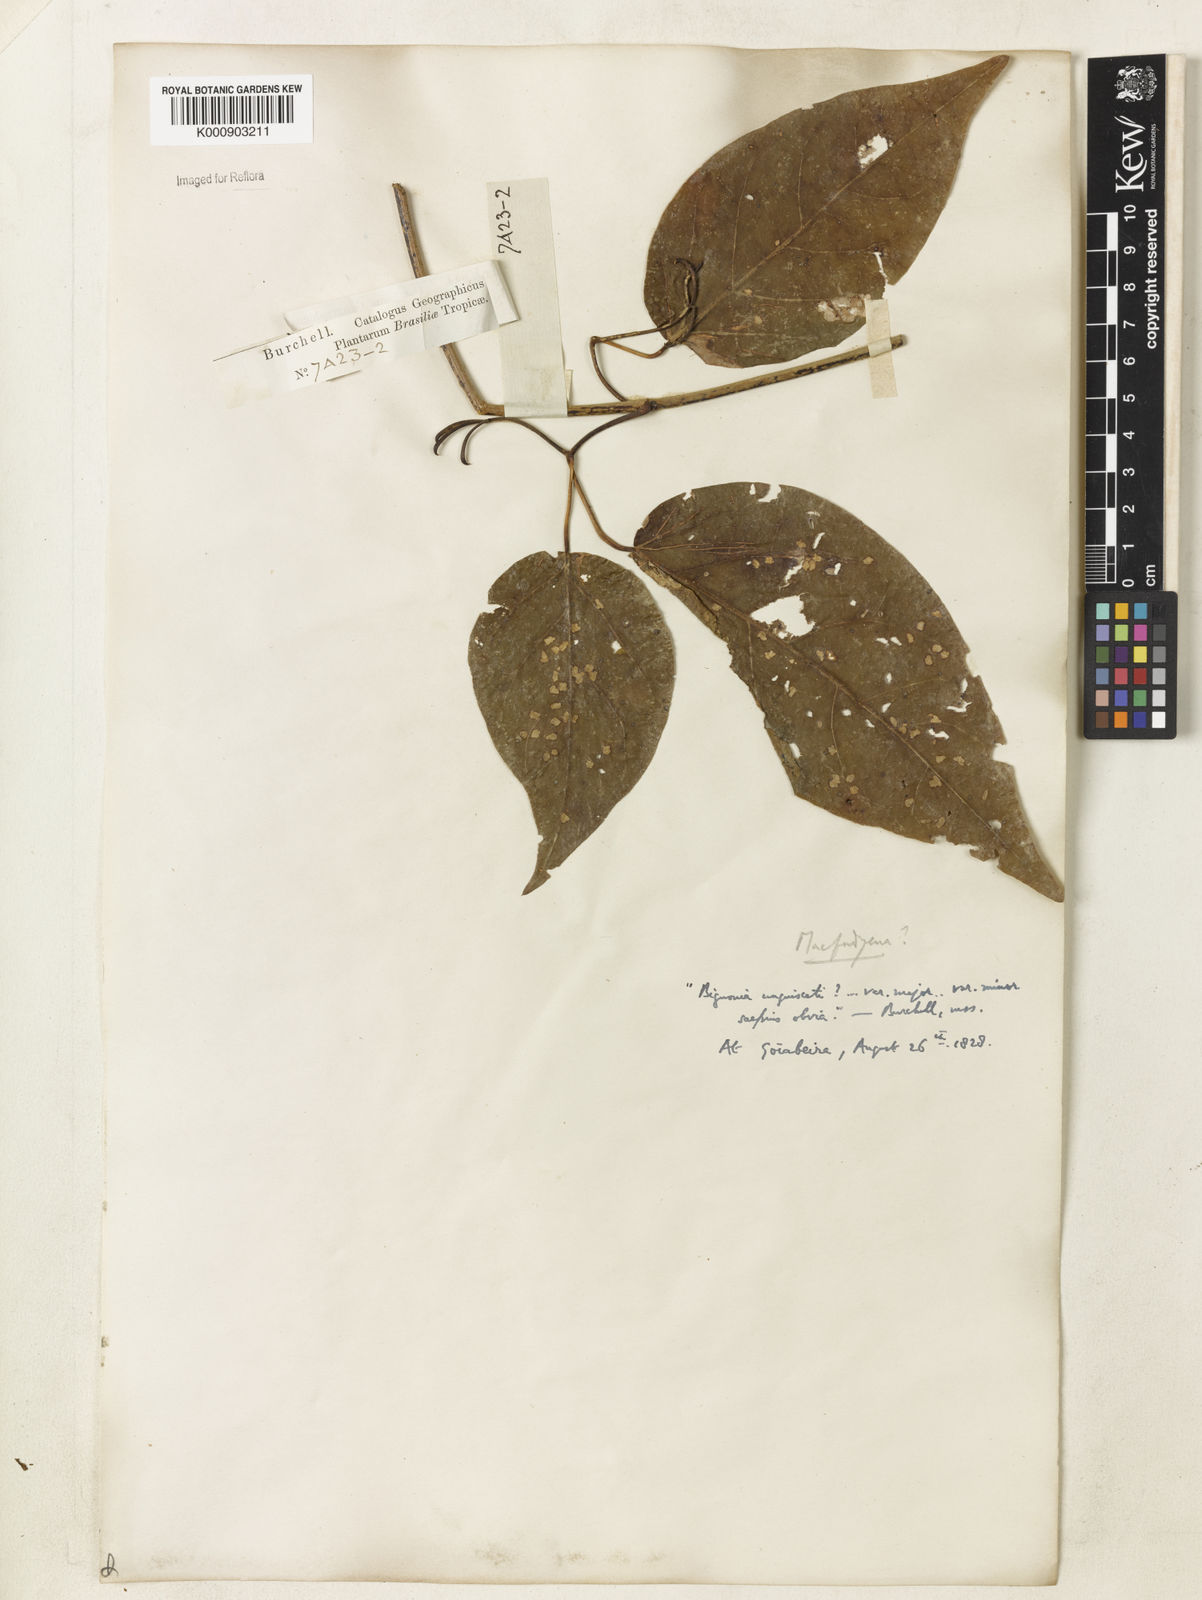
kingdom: Plantae
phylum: Tracheophyta
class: Magnoliopsida
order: Lamiales
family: Bignoniaceae
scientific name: Bignoniaceae
